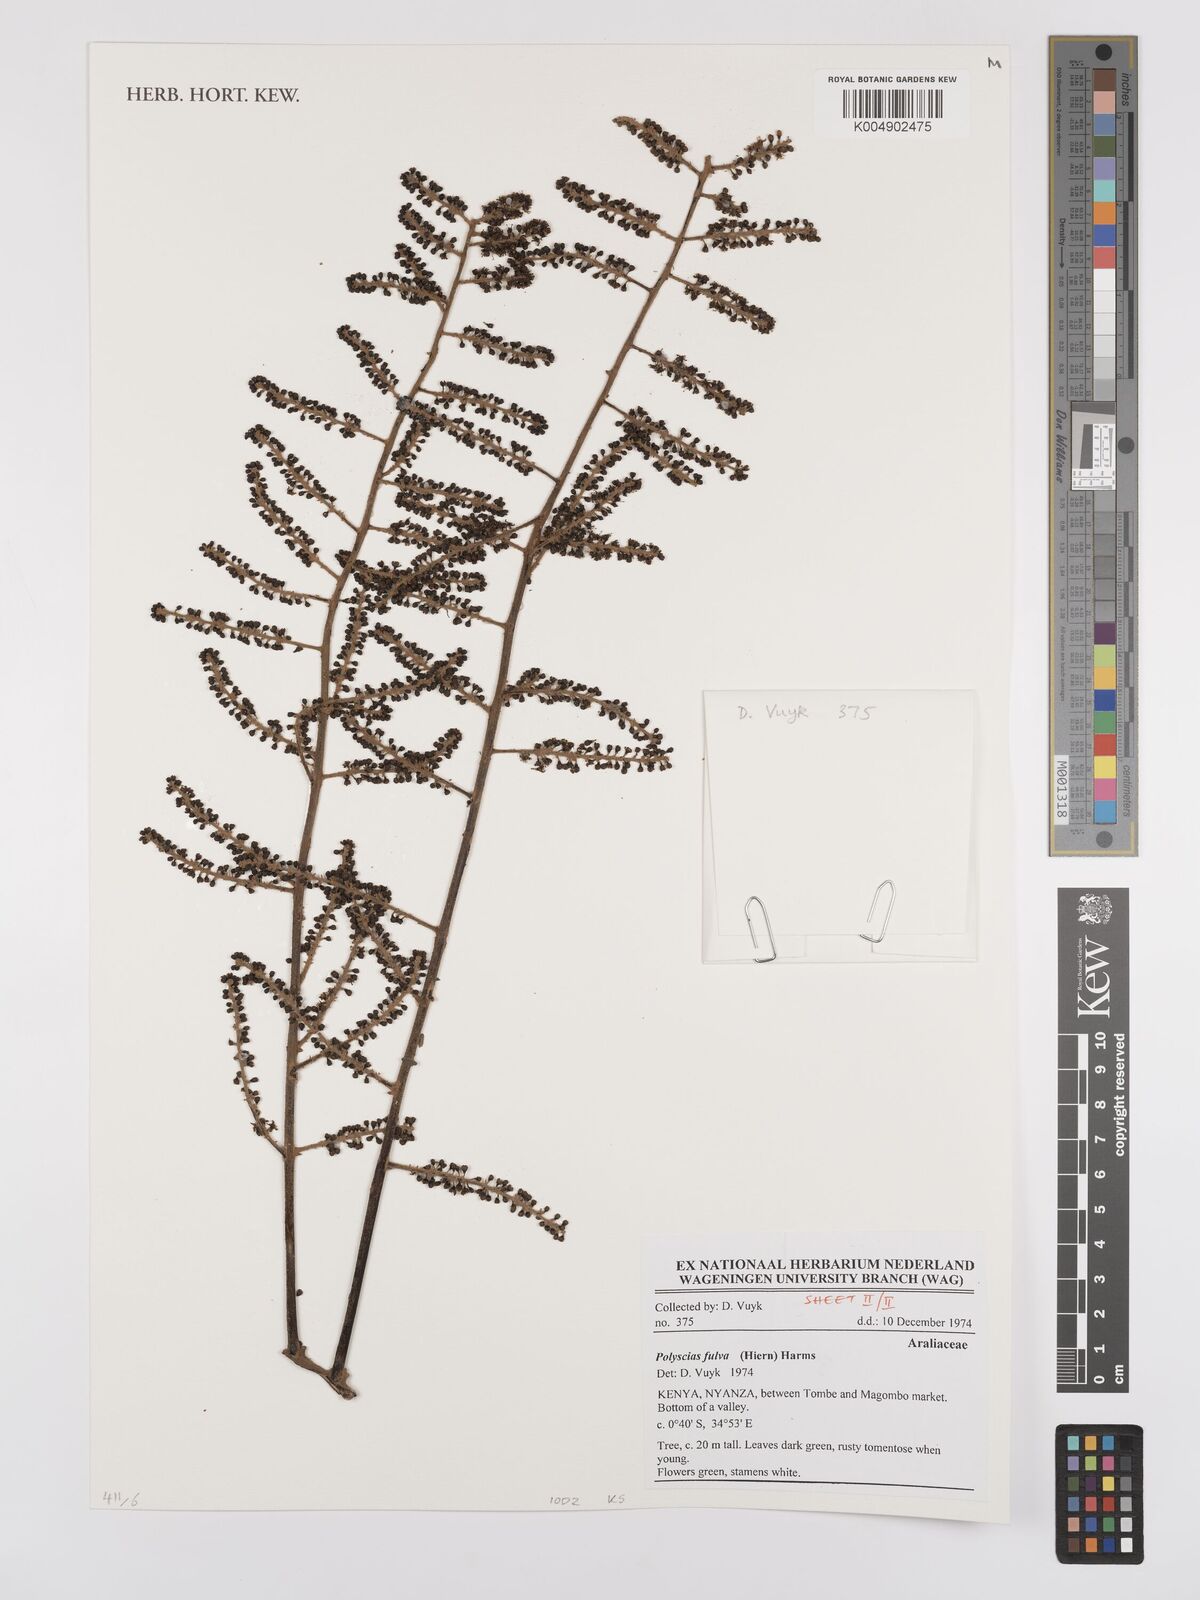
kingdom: Plantae
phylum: Tracheophyta
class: Magnoliopsida
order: Apiales
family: Araliaceae
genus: Polyscias
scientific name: Polyscias fulva
